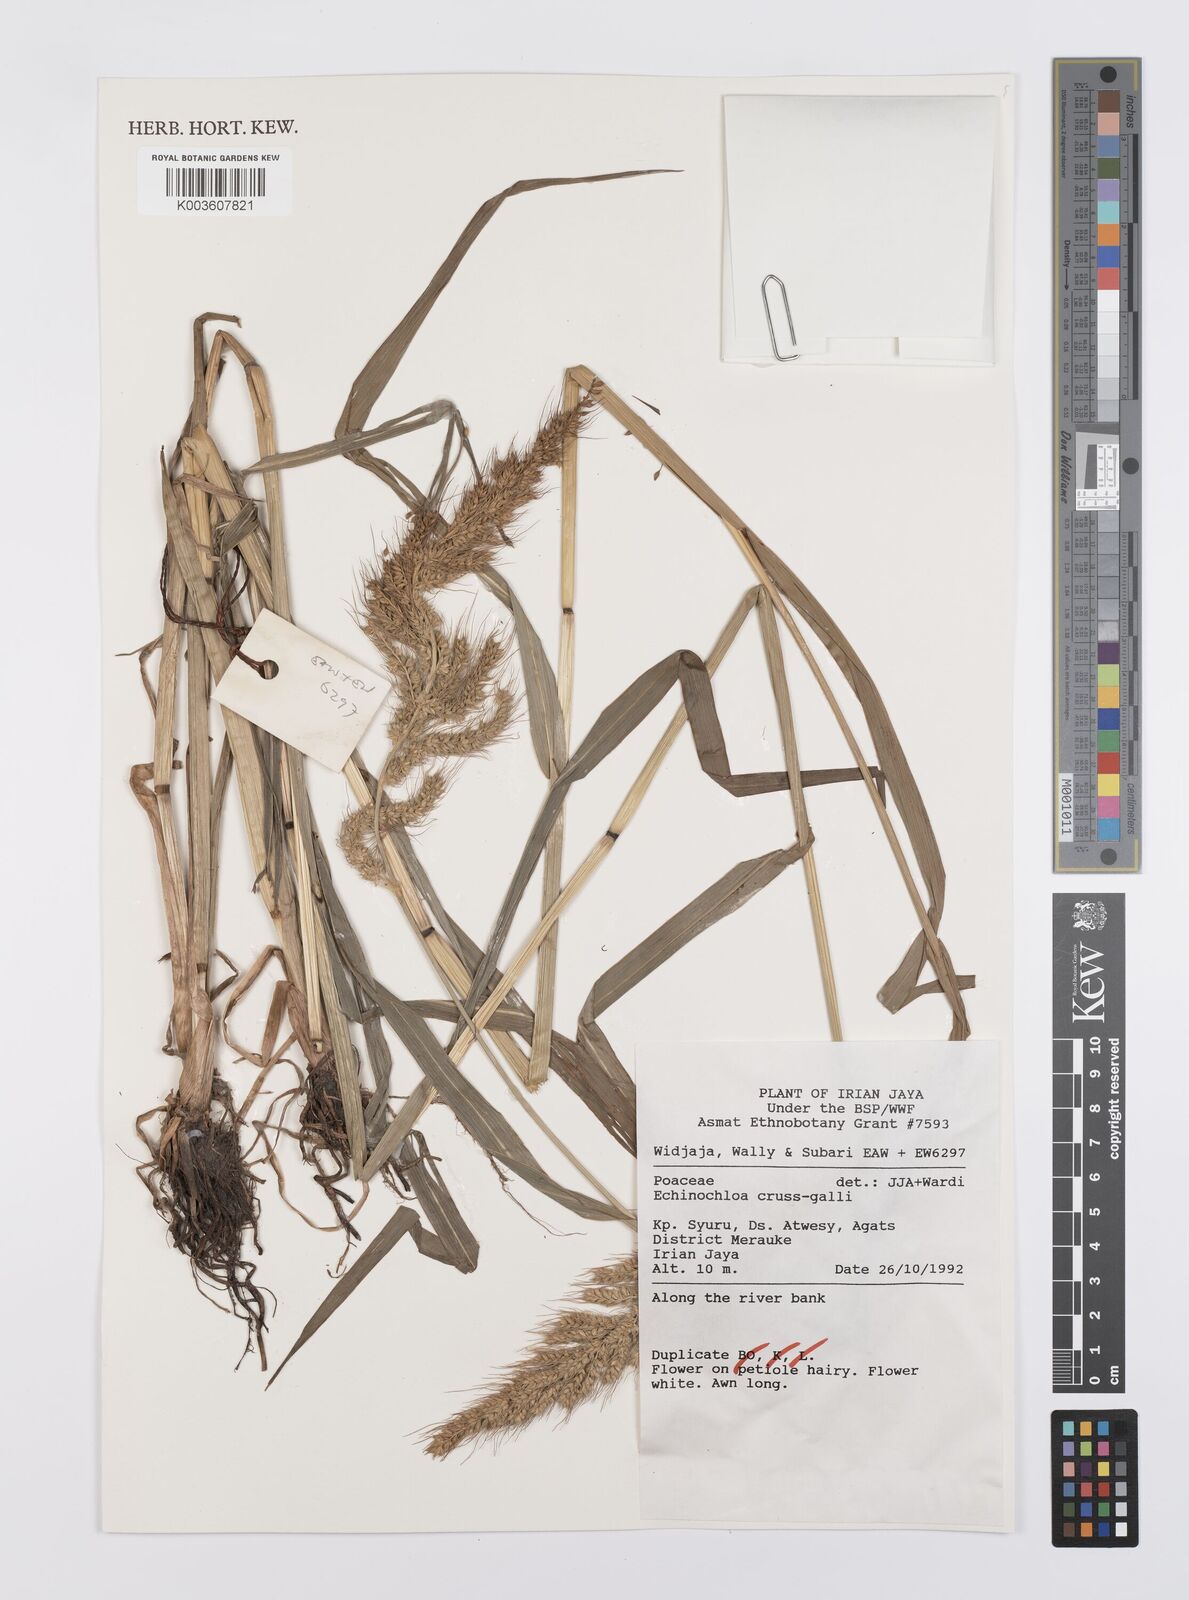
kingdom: Plantae
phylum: Tracheophyta
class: Liliopsida
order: Poales
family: Poaceae
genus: Echinochloa
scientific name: Echinochloa crus-galli
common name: Cockspur
